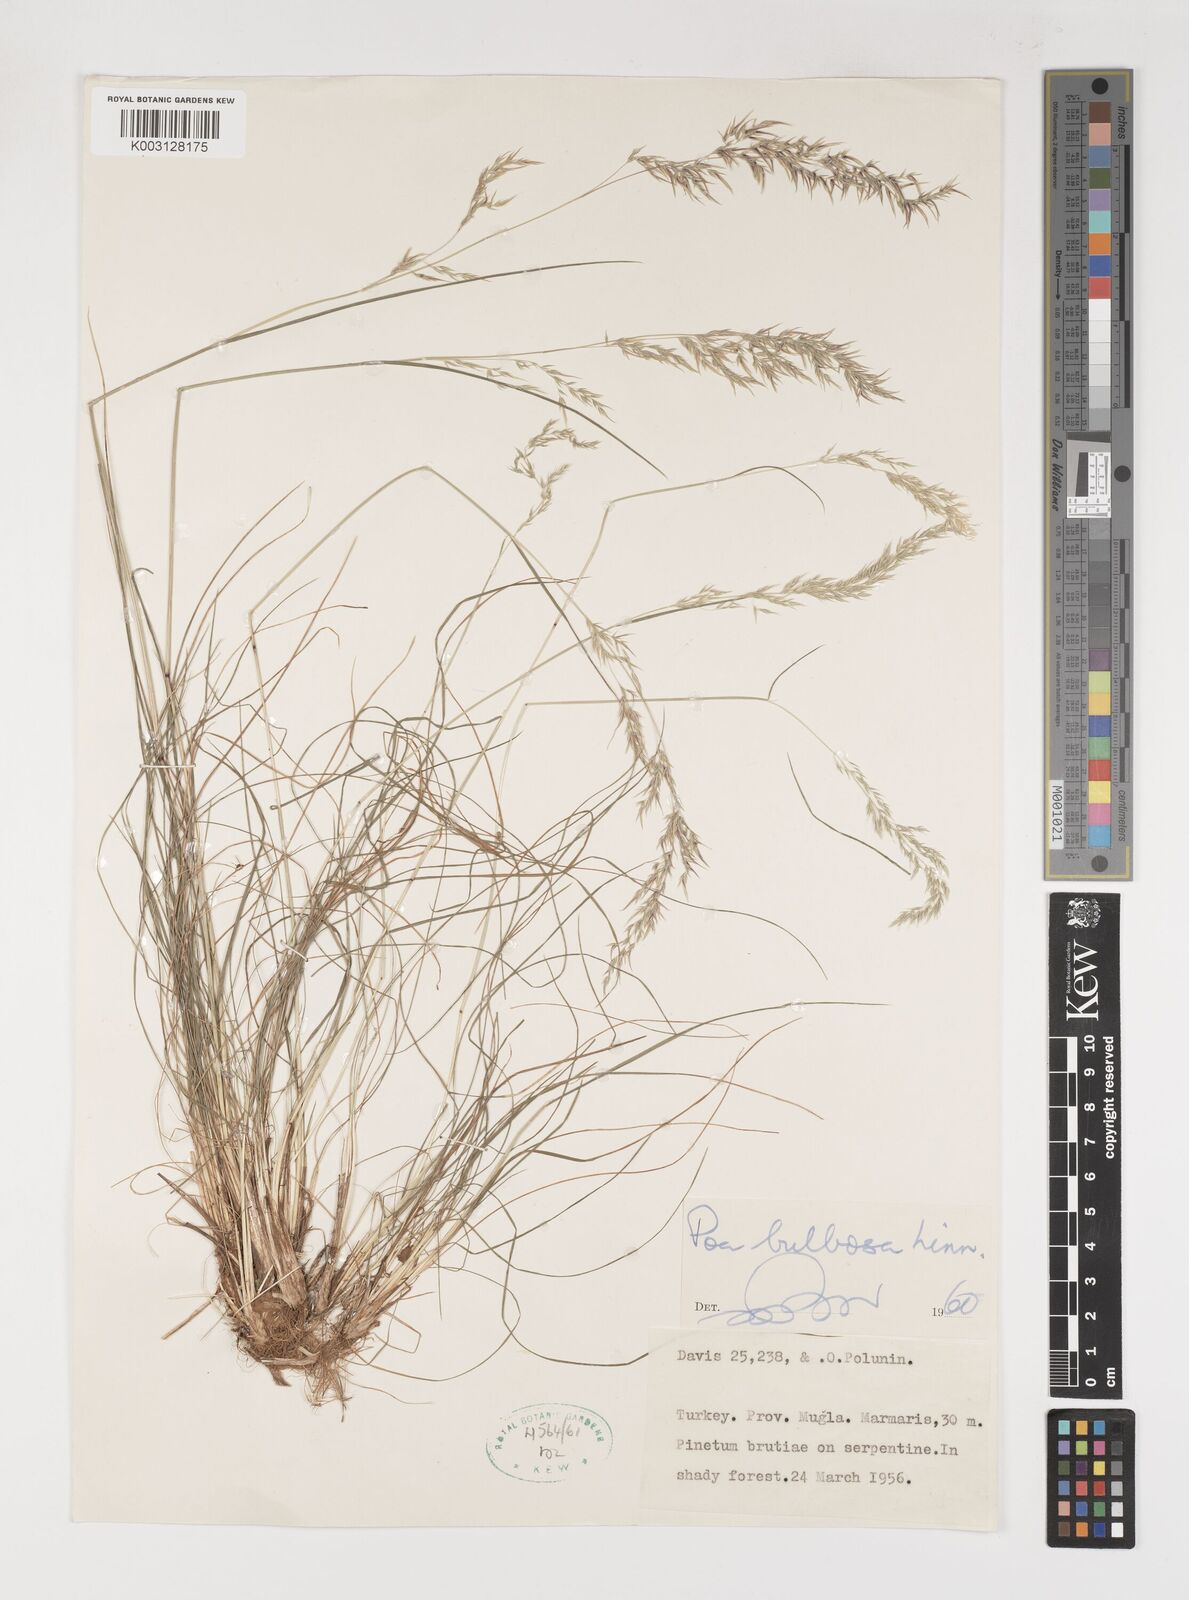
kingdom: Plantae
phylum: Tracheophyta
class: Liliopsida
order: Poales
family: Poaceae
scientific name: Poaceae
